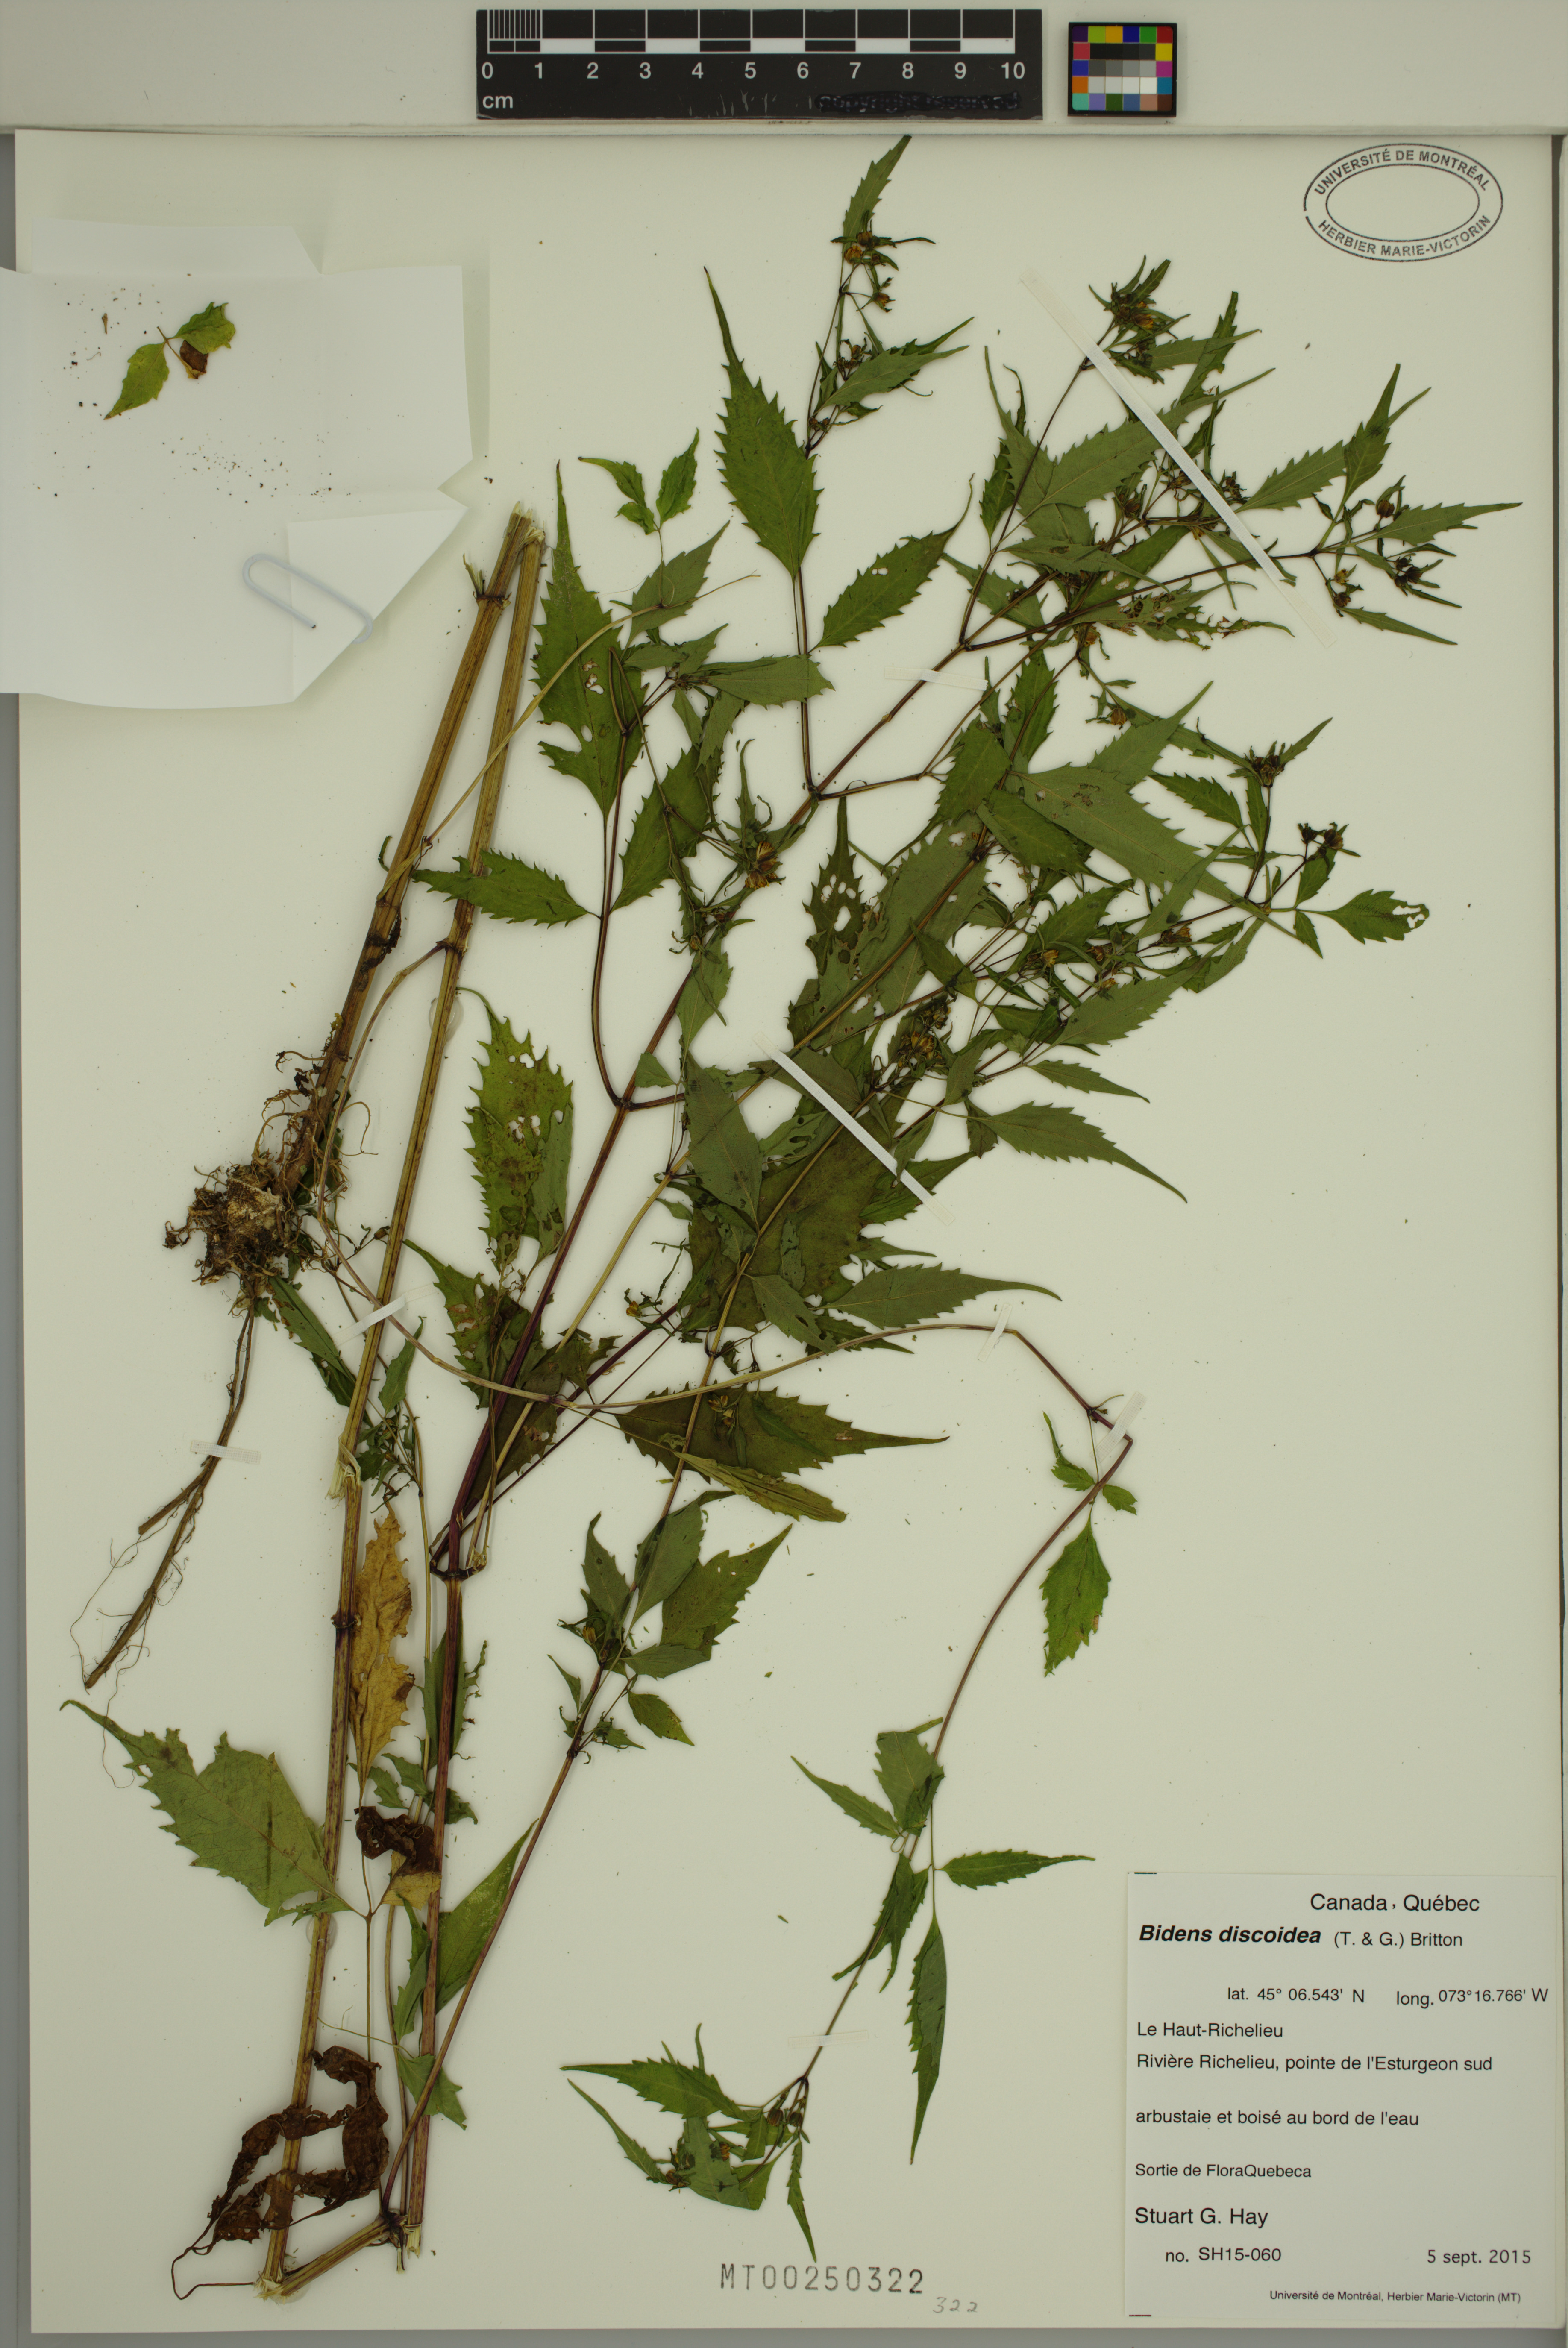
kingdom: Plantae
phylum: Tracheophyta
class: Magnoliopsida
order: Asterales
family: Asteraceae
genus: Bidens
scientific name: Bidens discoidea
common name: Discoide beggarticks
